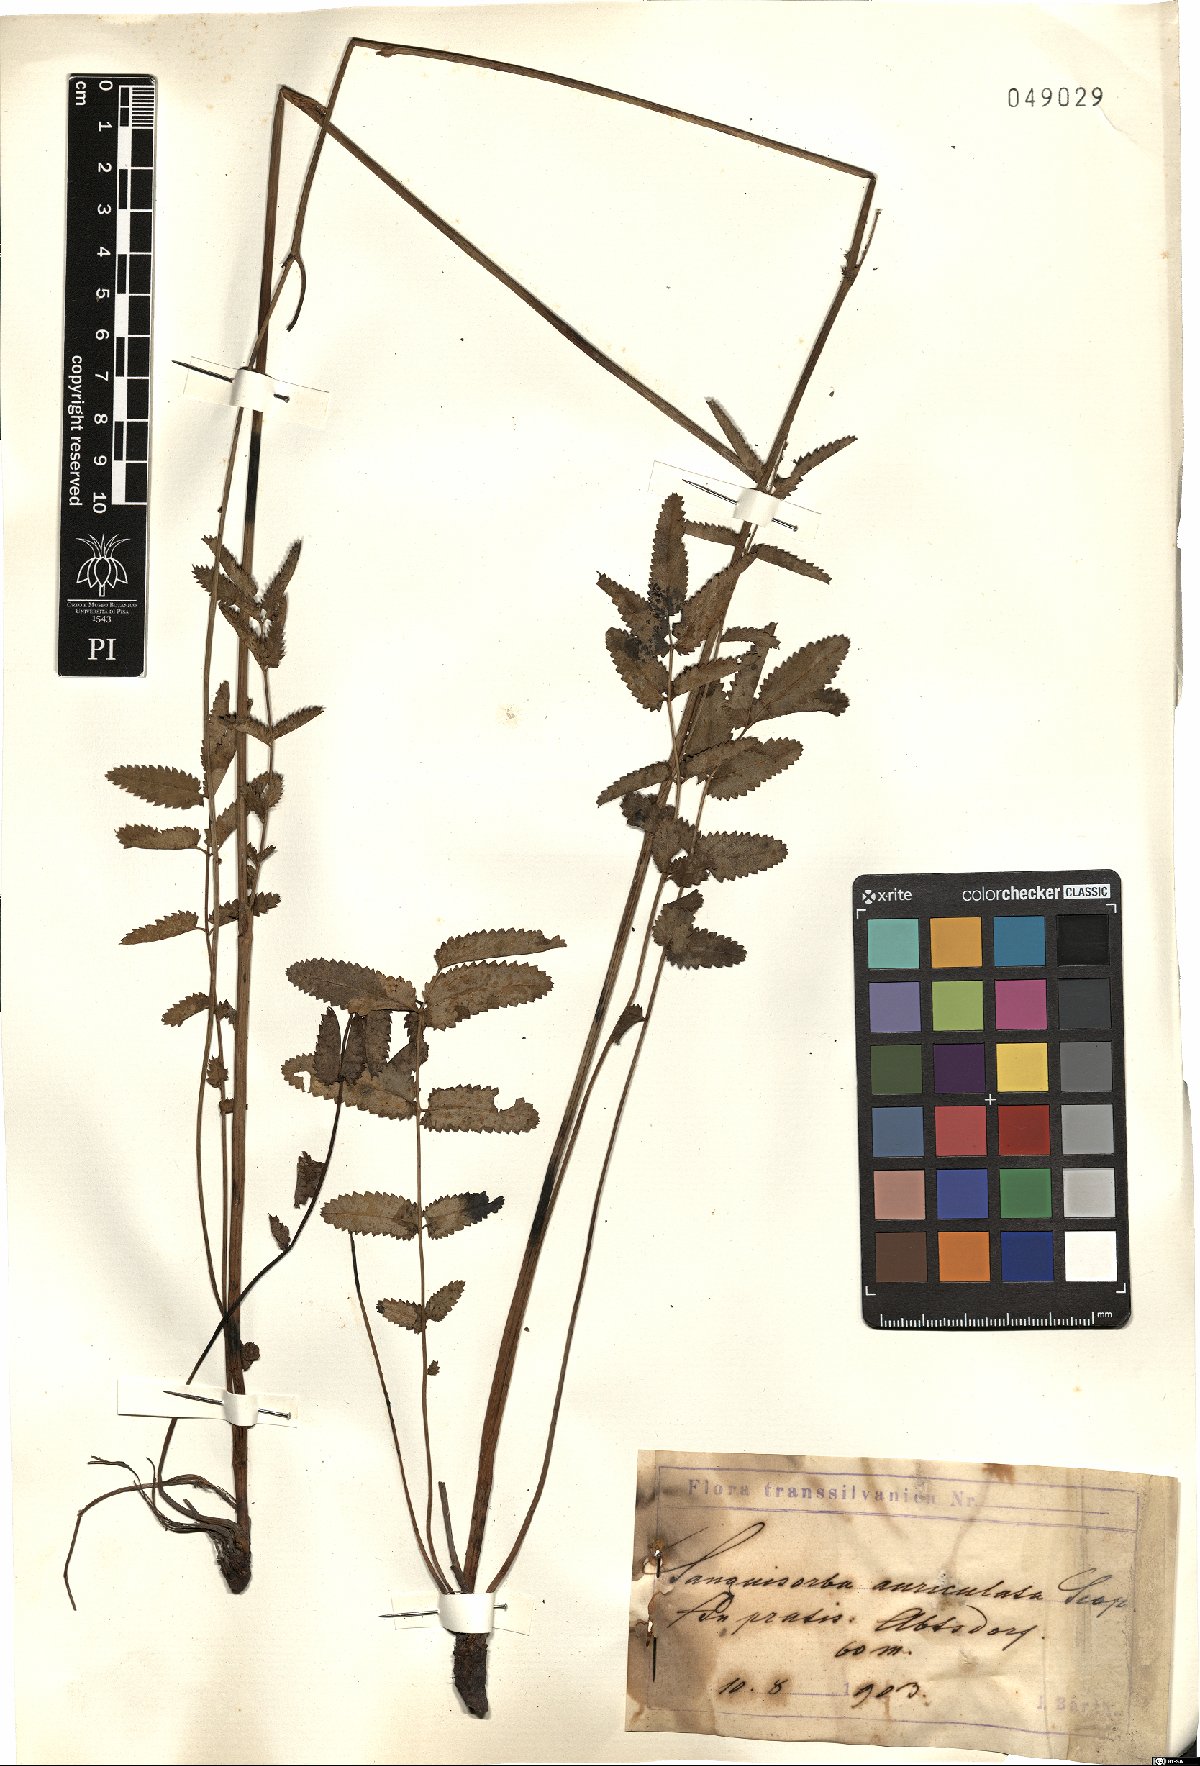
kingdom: Plantae
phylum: Tracheophyta
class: Magnoliopsida
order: Rosales
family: Rosaceae
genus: Sanguisorba
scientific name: Sanguisorba officinalis
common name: Great burnet
